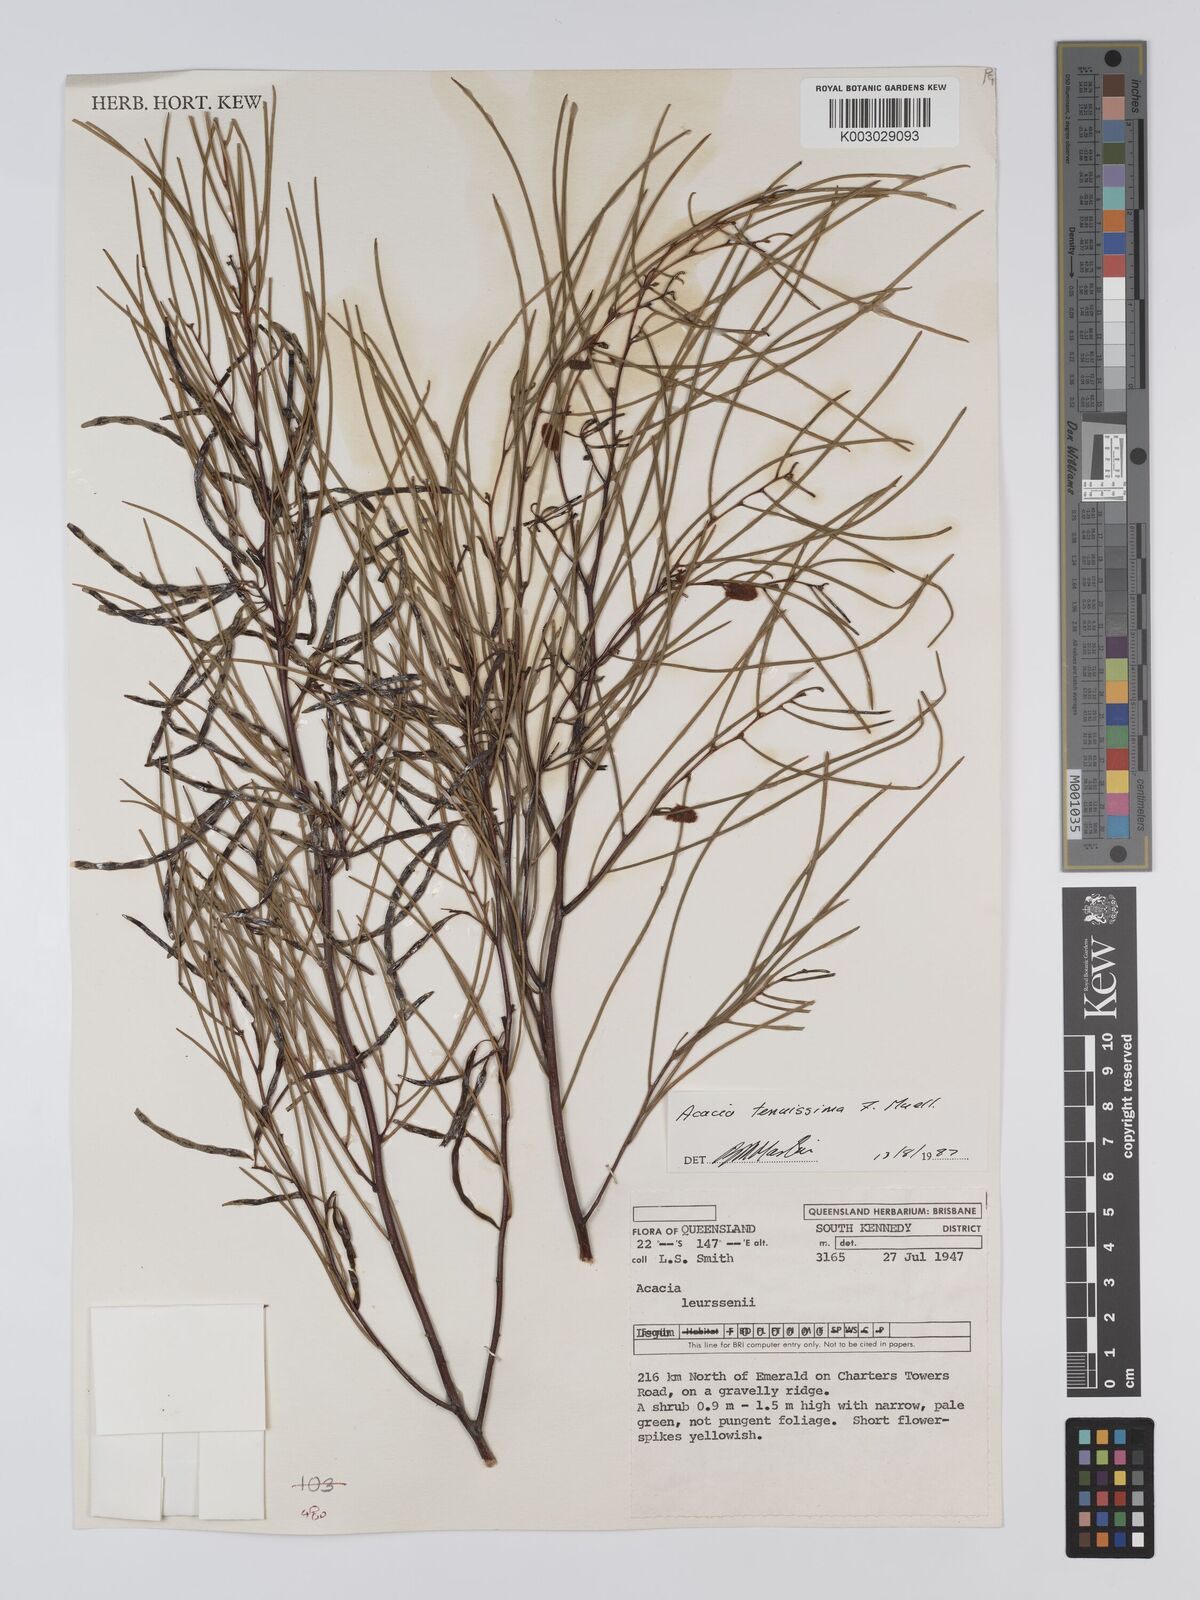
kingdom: Plantae
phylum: Tracheophyta
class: Magnoliopsida
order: Fabales
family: Fabaceae
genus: Acacia
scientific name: Acacia tenuissima
